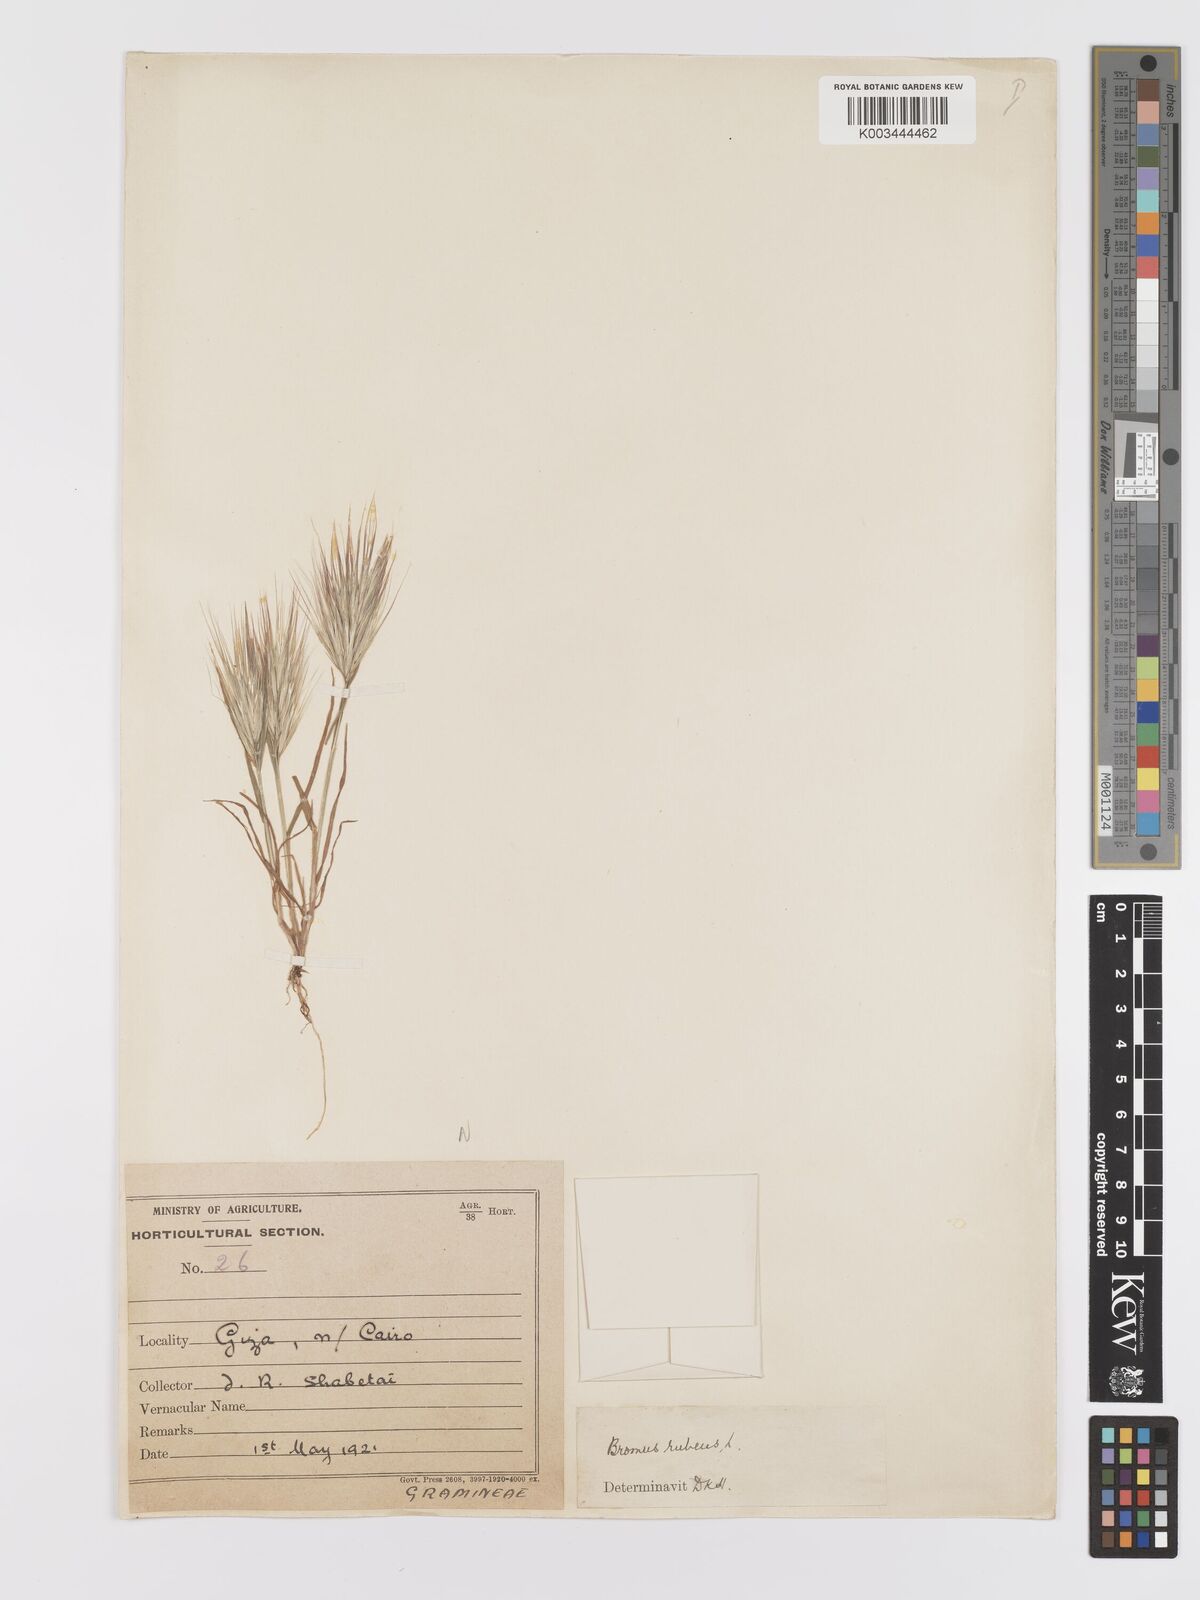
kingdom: Plantae
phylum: Tracheophyta
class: Liliopsida
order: Poales
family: Poaceae
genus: Bromus
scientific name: Bromus rubens
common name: Red brome
